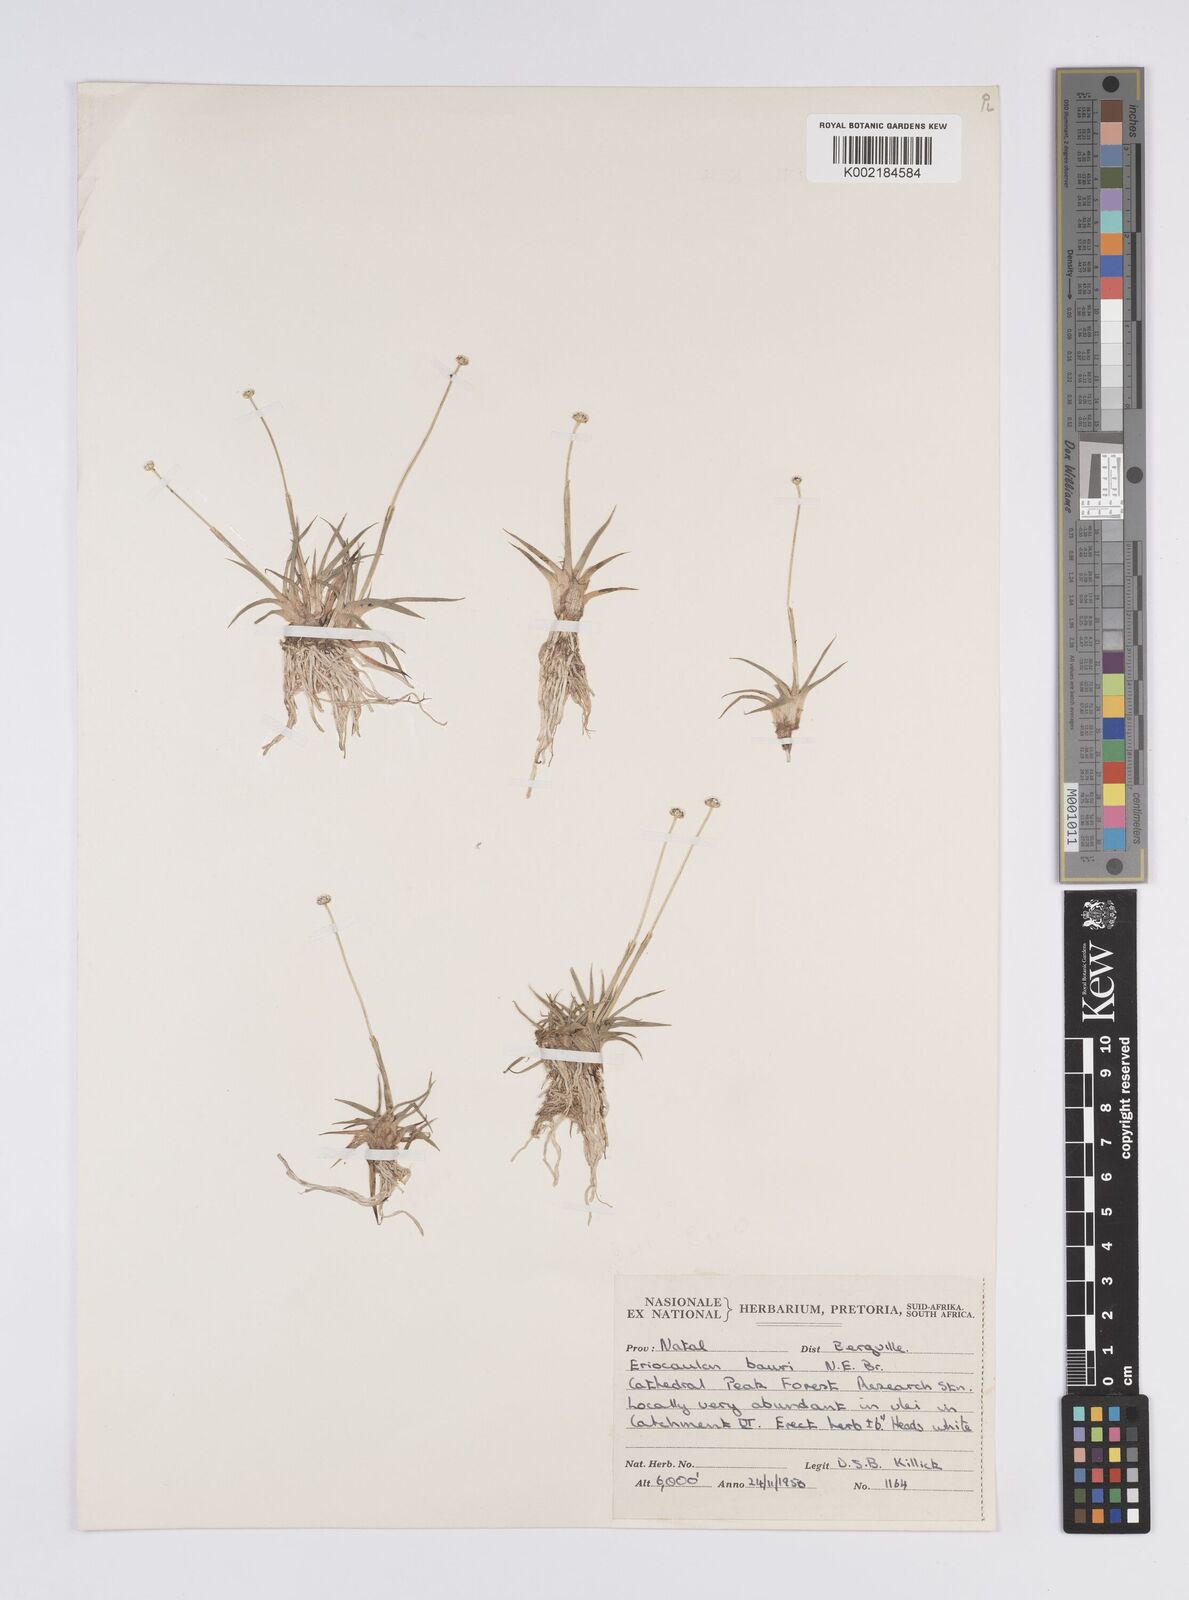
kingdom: Plantae
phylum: Tracheophyta
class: Liliopsida
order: Poales
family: Eriocaulaceae
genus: Eriocaulon
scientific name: Eriocaulon sonderianum
